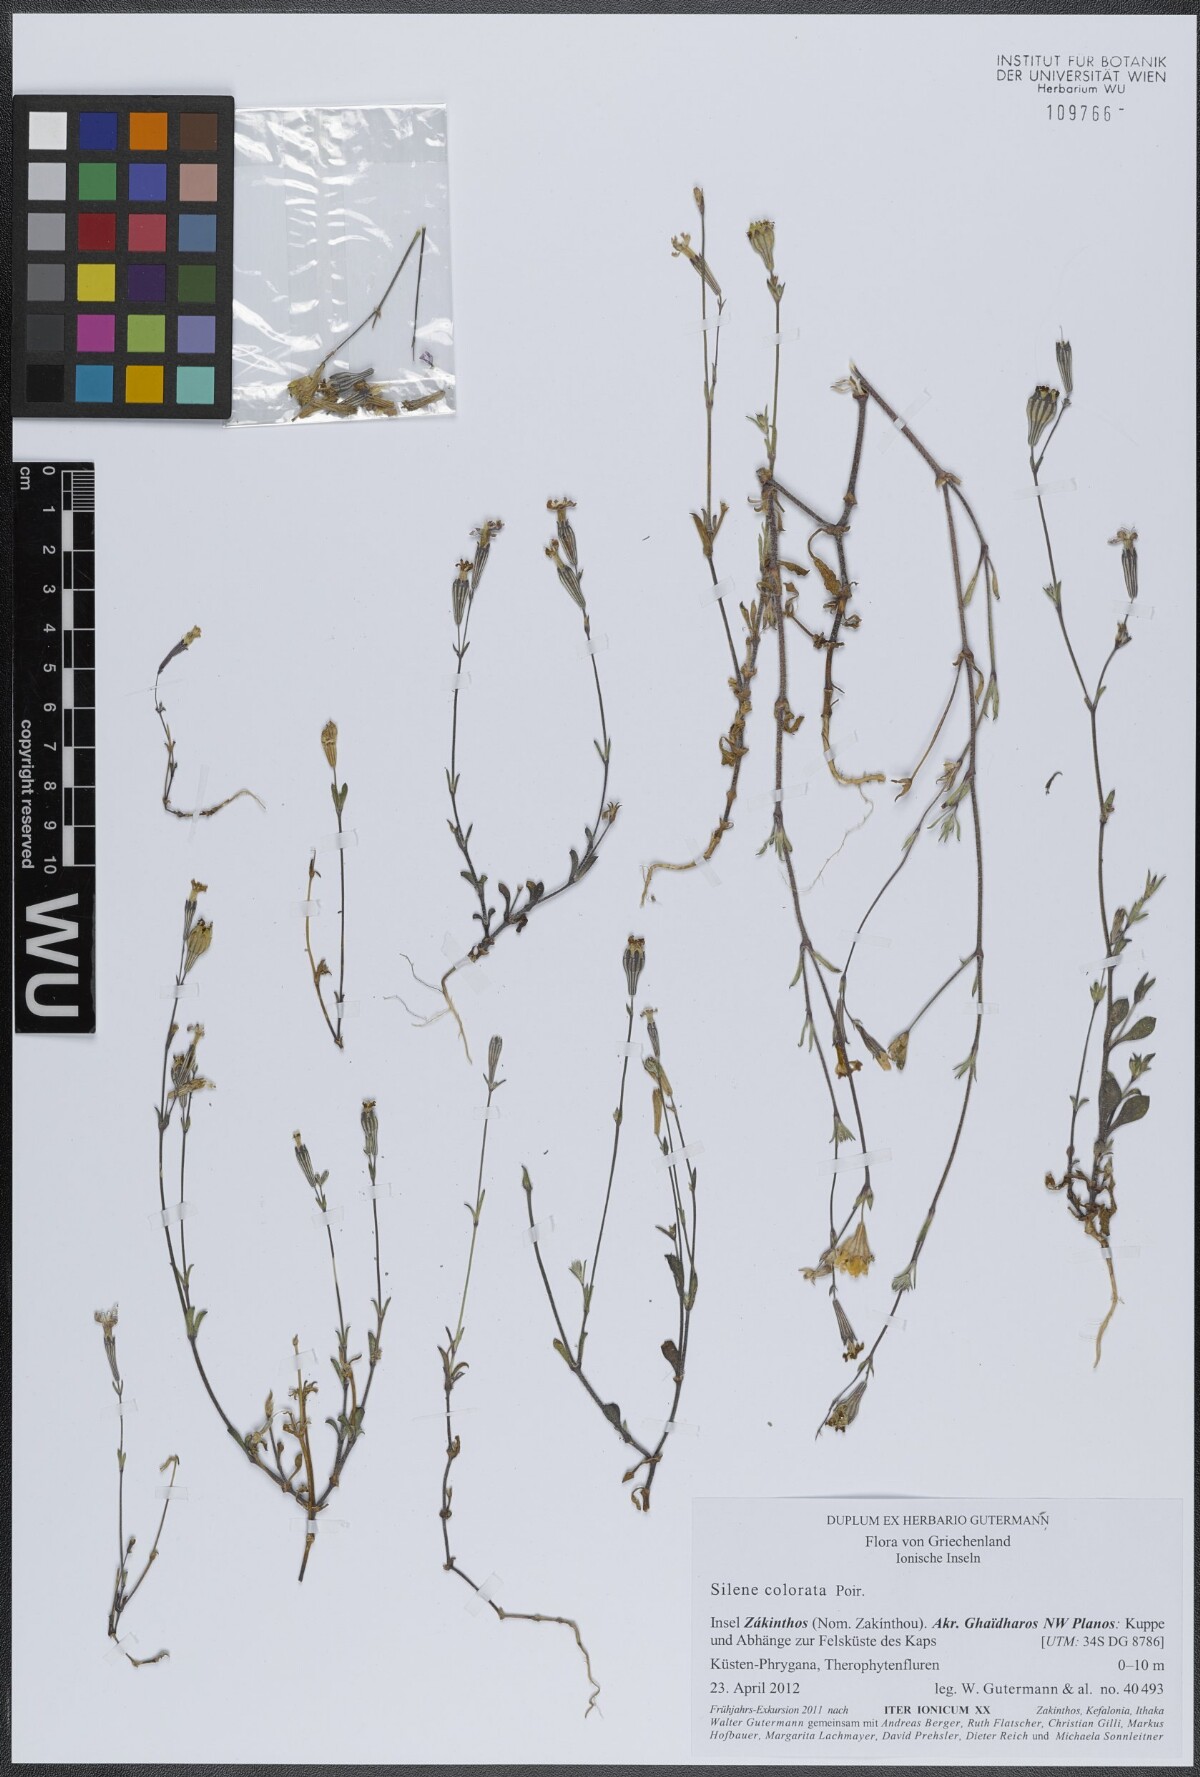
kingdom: Plantae
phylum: Tracheophyta
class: Magnoliopsida
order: Caryophyllales
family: Caryophyllaceae
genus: Silene
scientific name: Silene colorata
